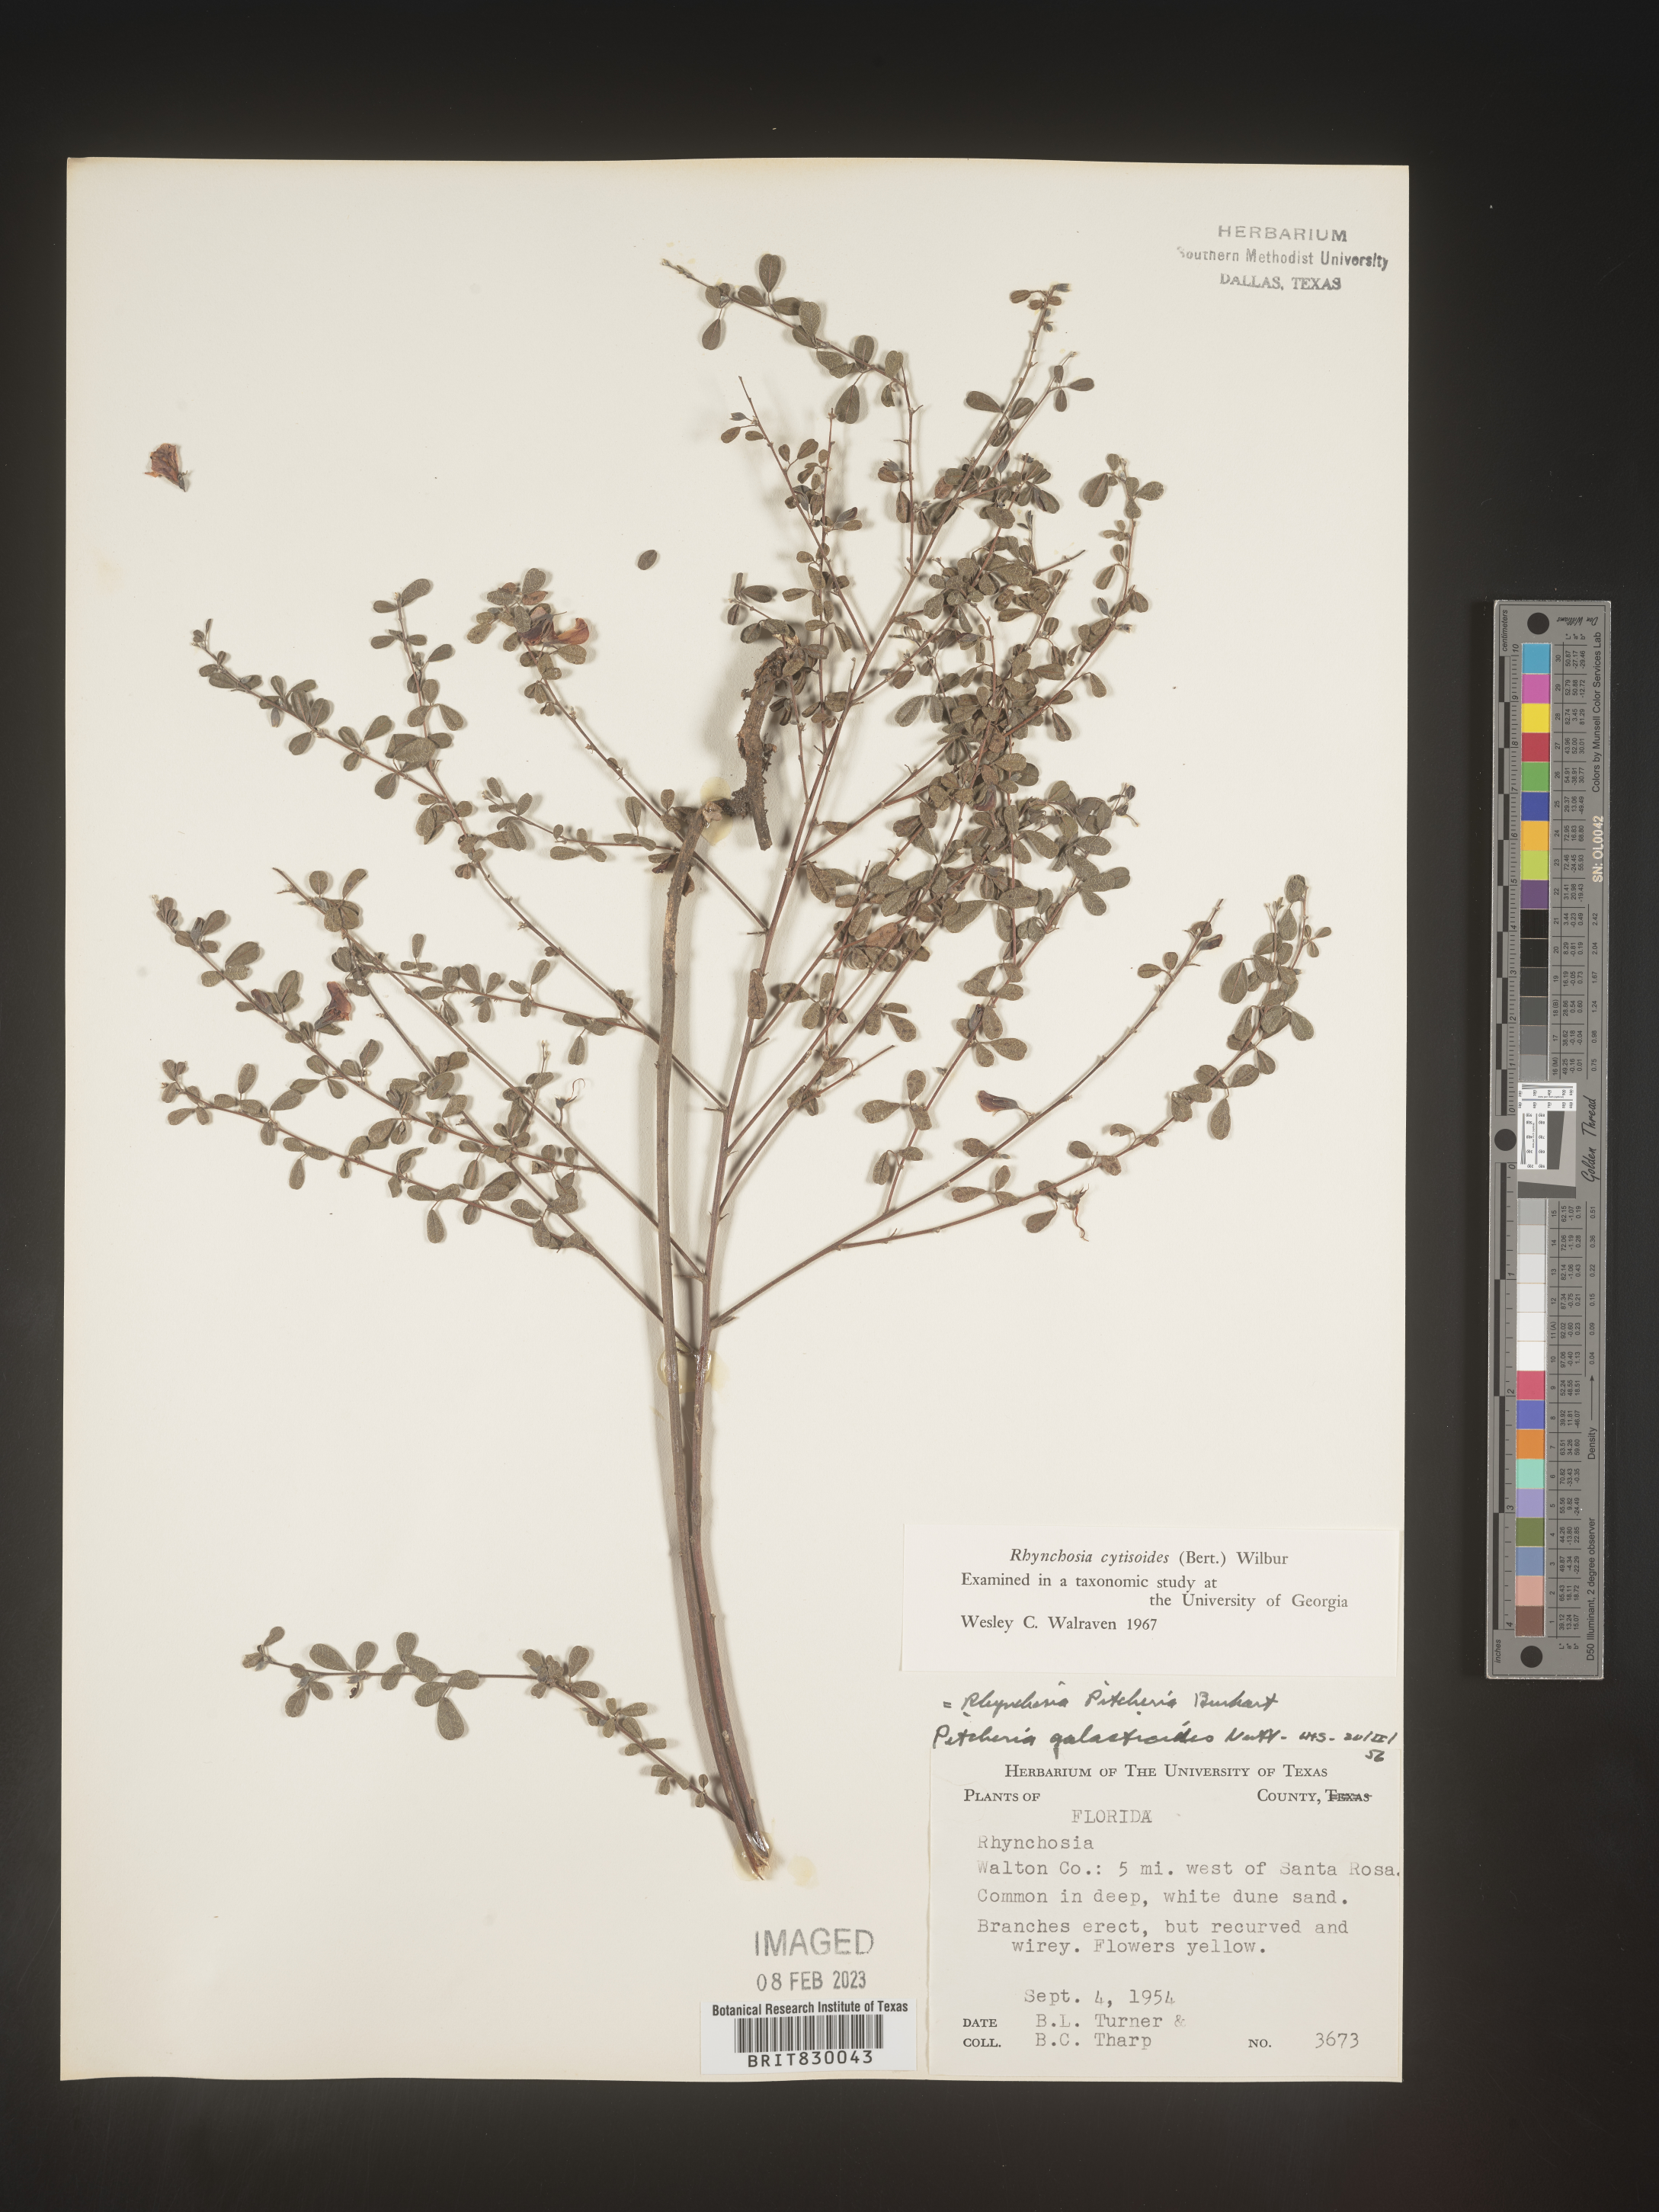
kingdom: Plantae
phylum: Tracheophyta
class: Magnoliopsida
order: Fabales
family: Fabaceae
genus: Rhynchosia
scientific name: Rhynchosia
